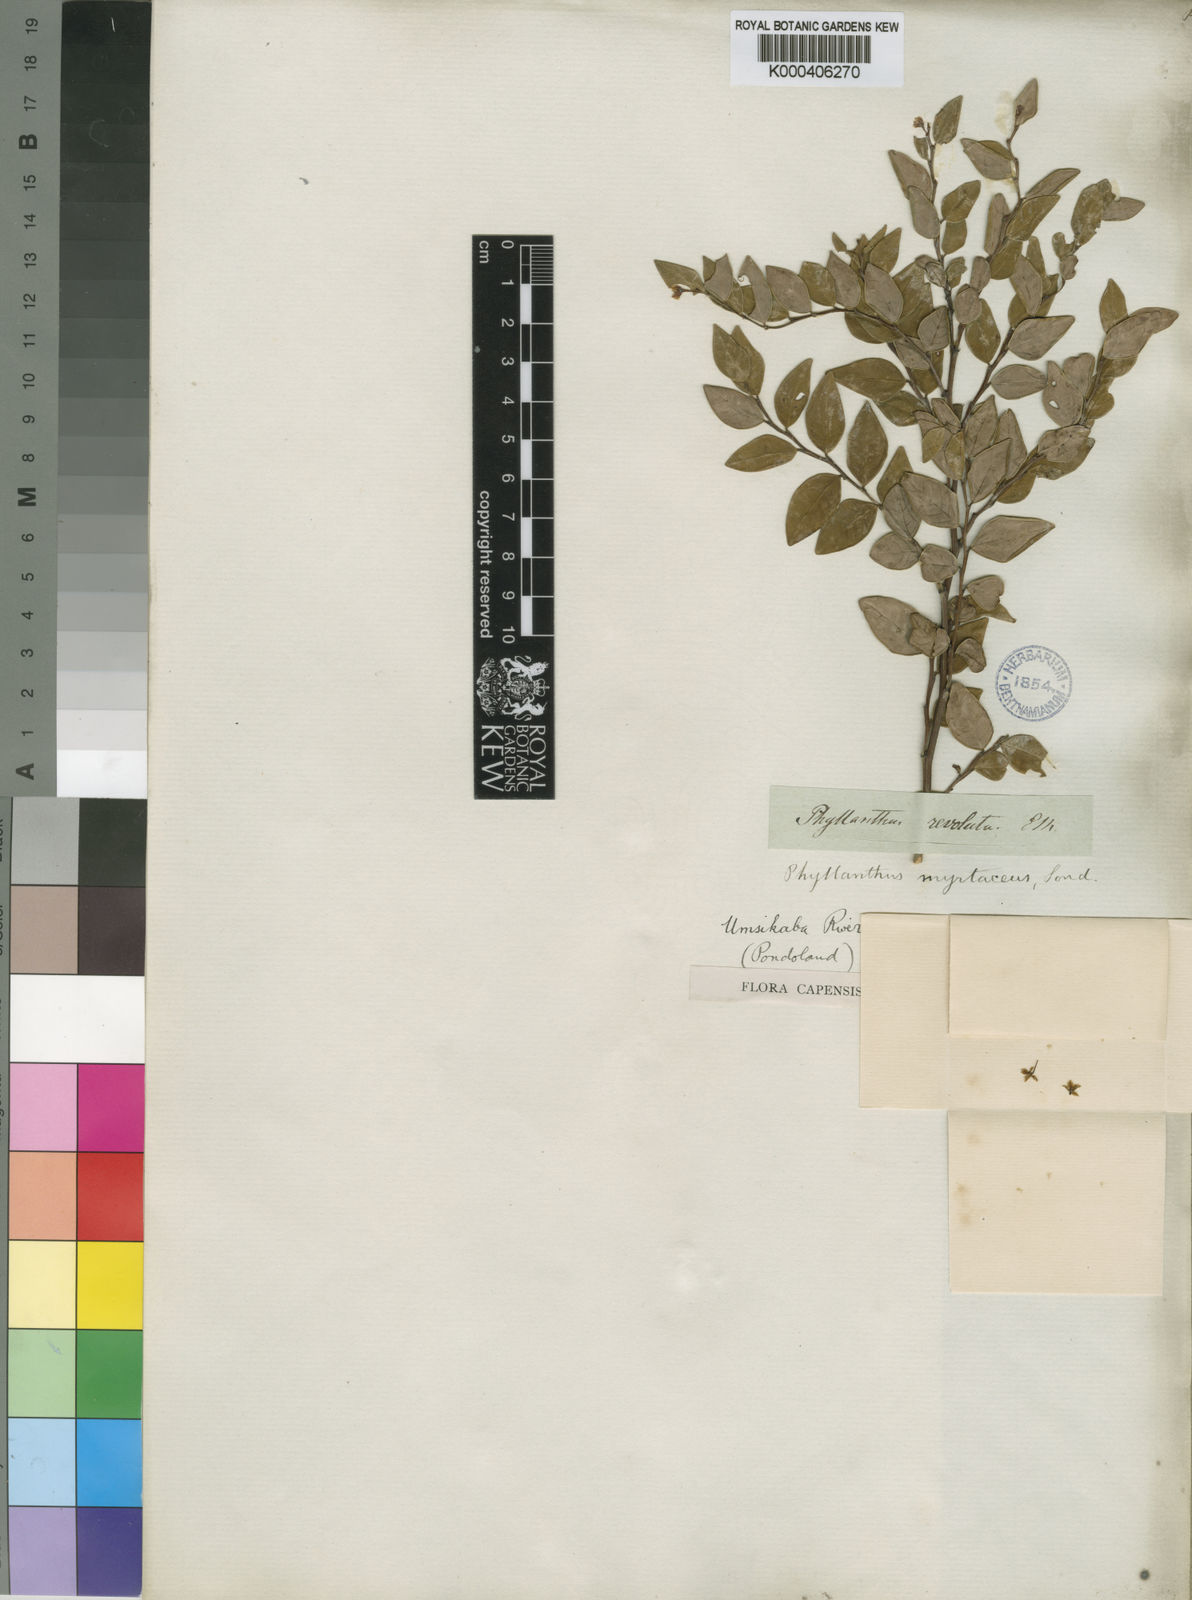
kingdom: Plantae
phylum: Tracheophyta
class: Magnoliopsida
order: Malpighiales
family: Phyllanthaceae
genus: Phyllanthus
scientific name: Phyllanthus myrtaceus
